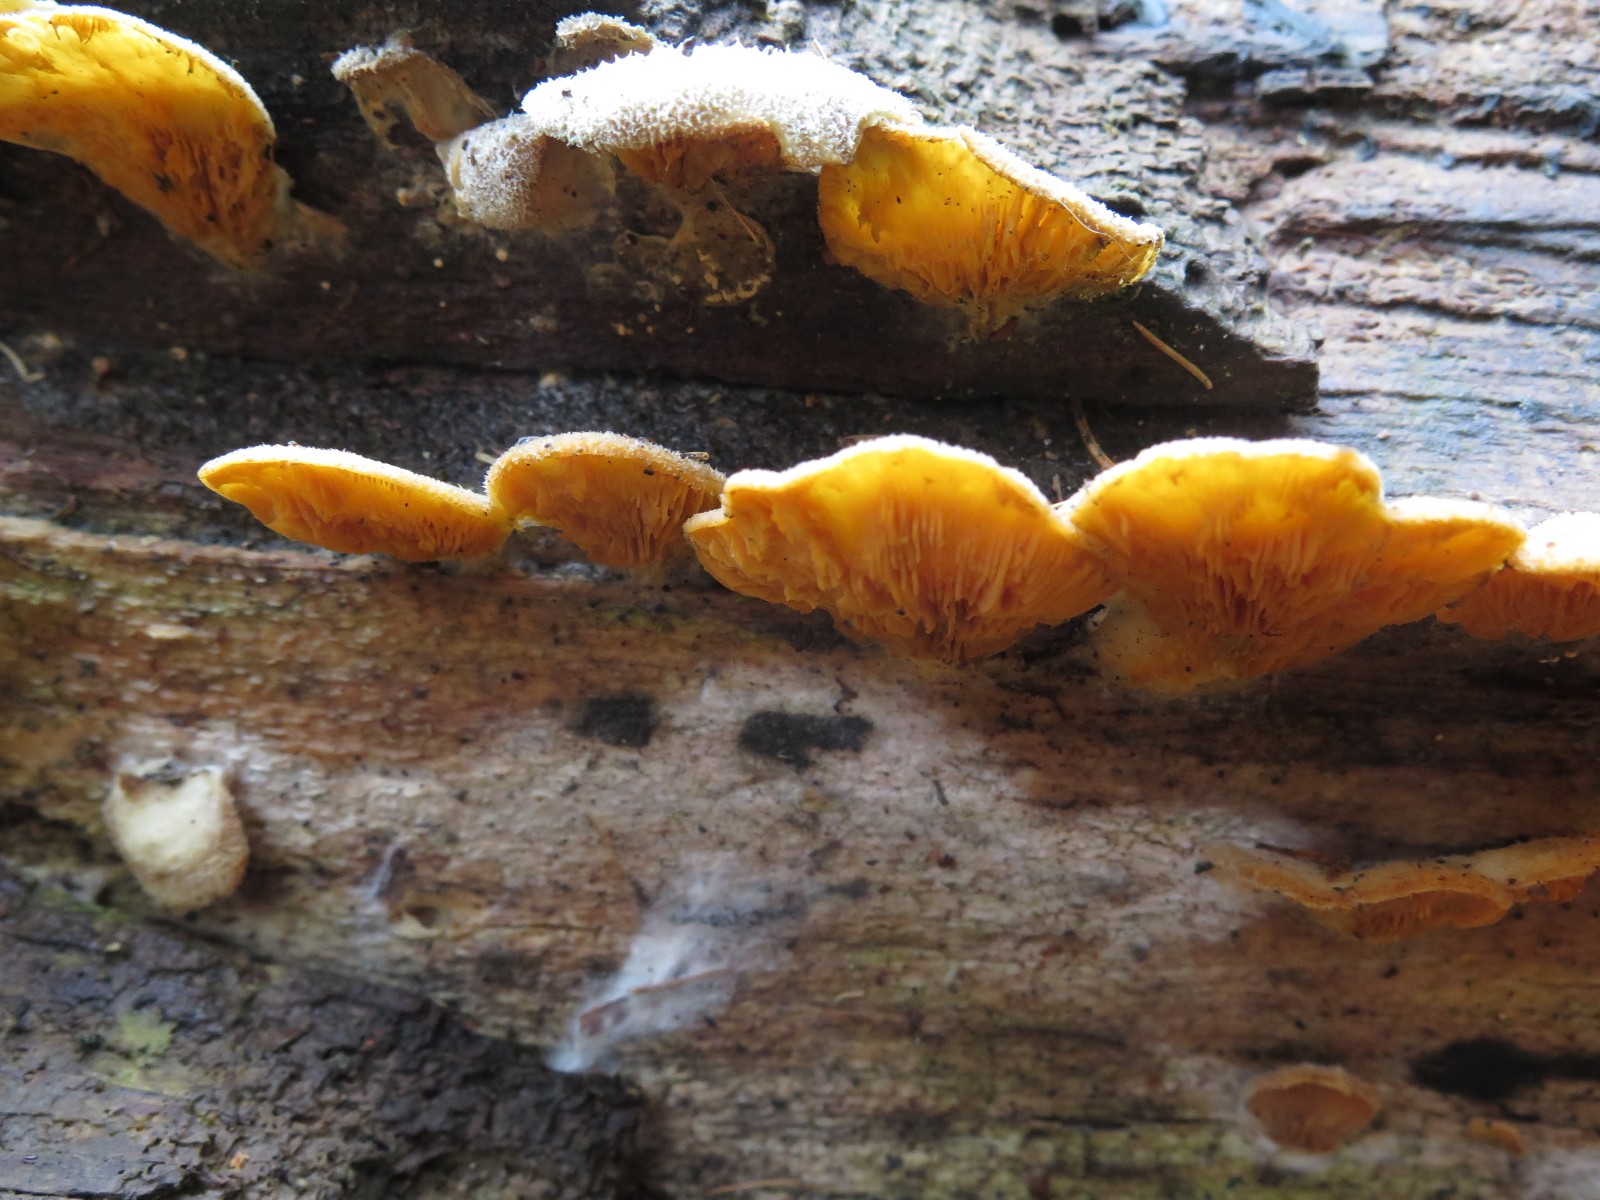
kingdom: Fungi
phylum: Basidiomycota
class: Agaricomycetes
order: Agaricales
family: Phyllotopsidaceae
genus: Phyllotopsis
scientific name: Phyllotopsis nidulans
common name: okkerblad
